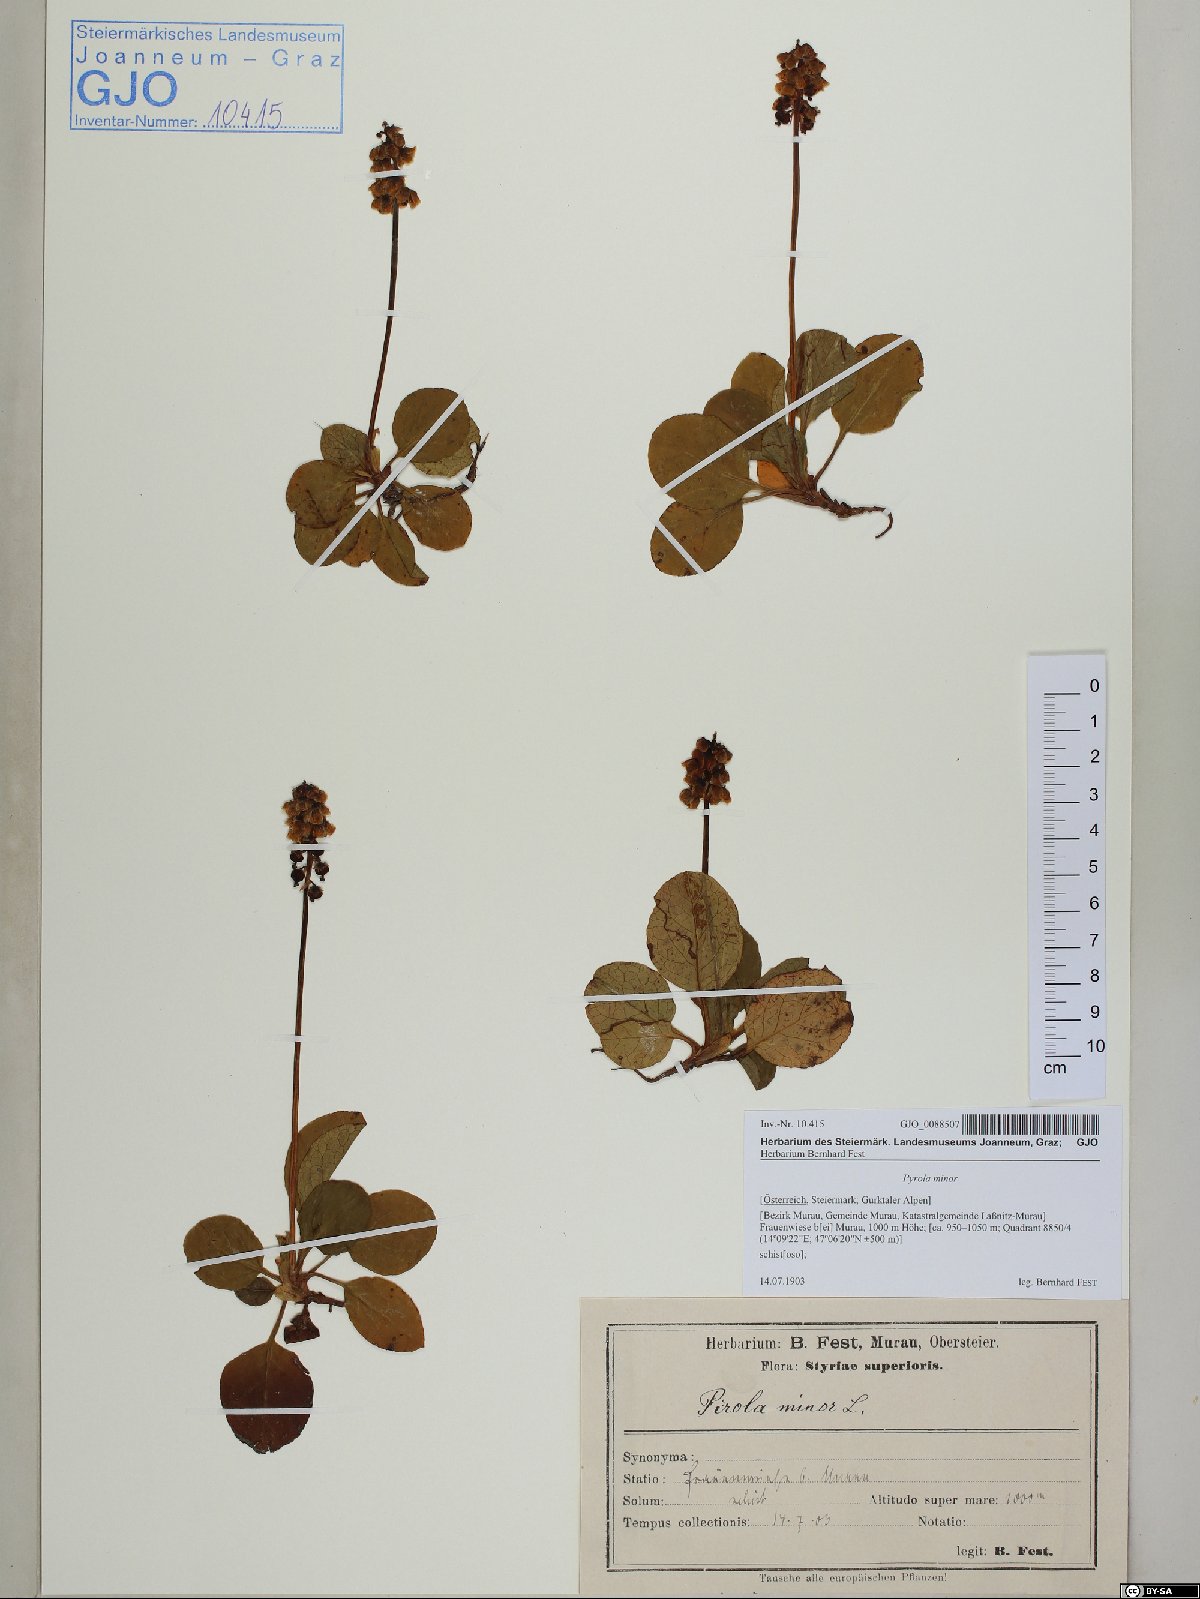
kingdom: Plantae
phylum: Tracheophyta
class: Magnoliopsida
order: Ericales
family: Ericaceae
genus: Pyrola
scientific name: Pyrola minor
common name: Common wintergreen
